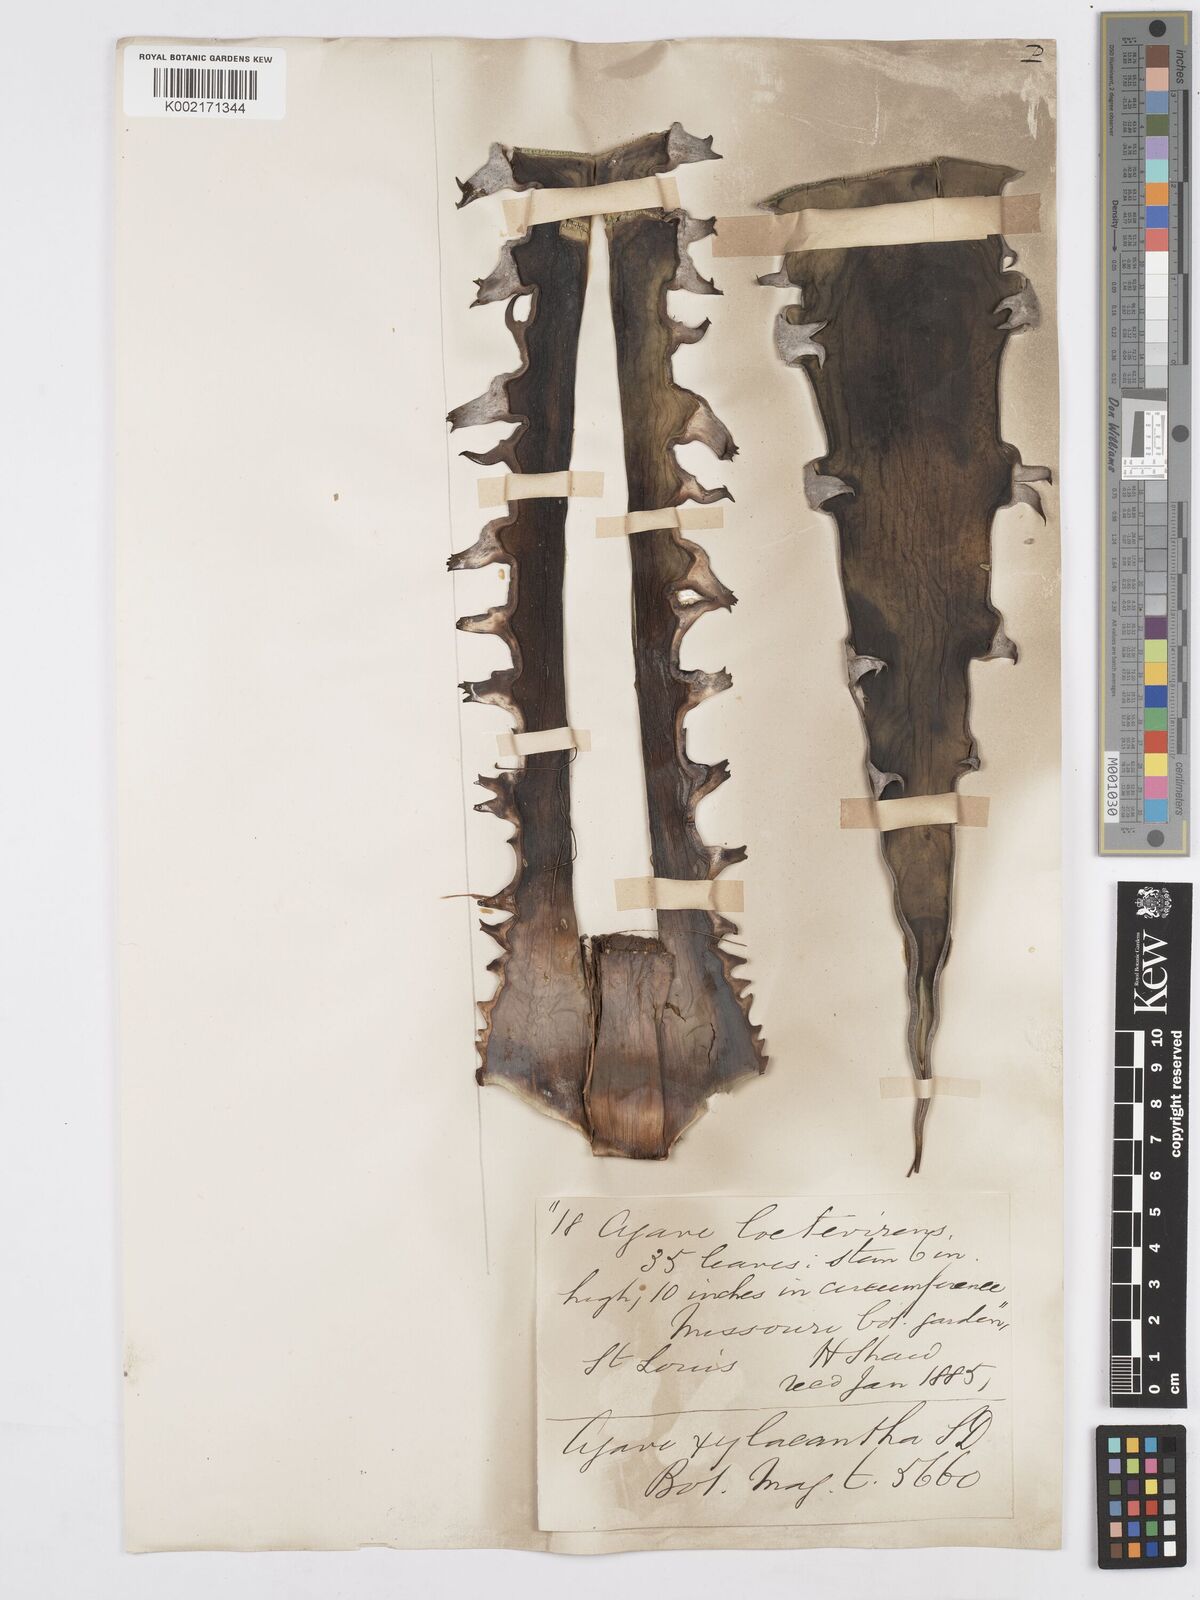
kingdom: Plantae
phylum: Tracheophyta
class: Liliopsida
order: Asparagales
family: Asparagaceae
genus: Agave
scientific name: Agave xylonacantha
